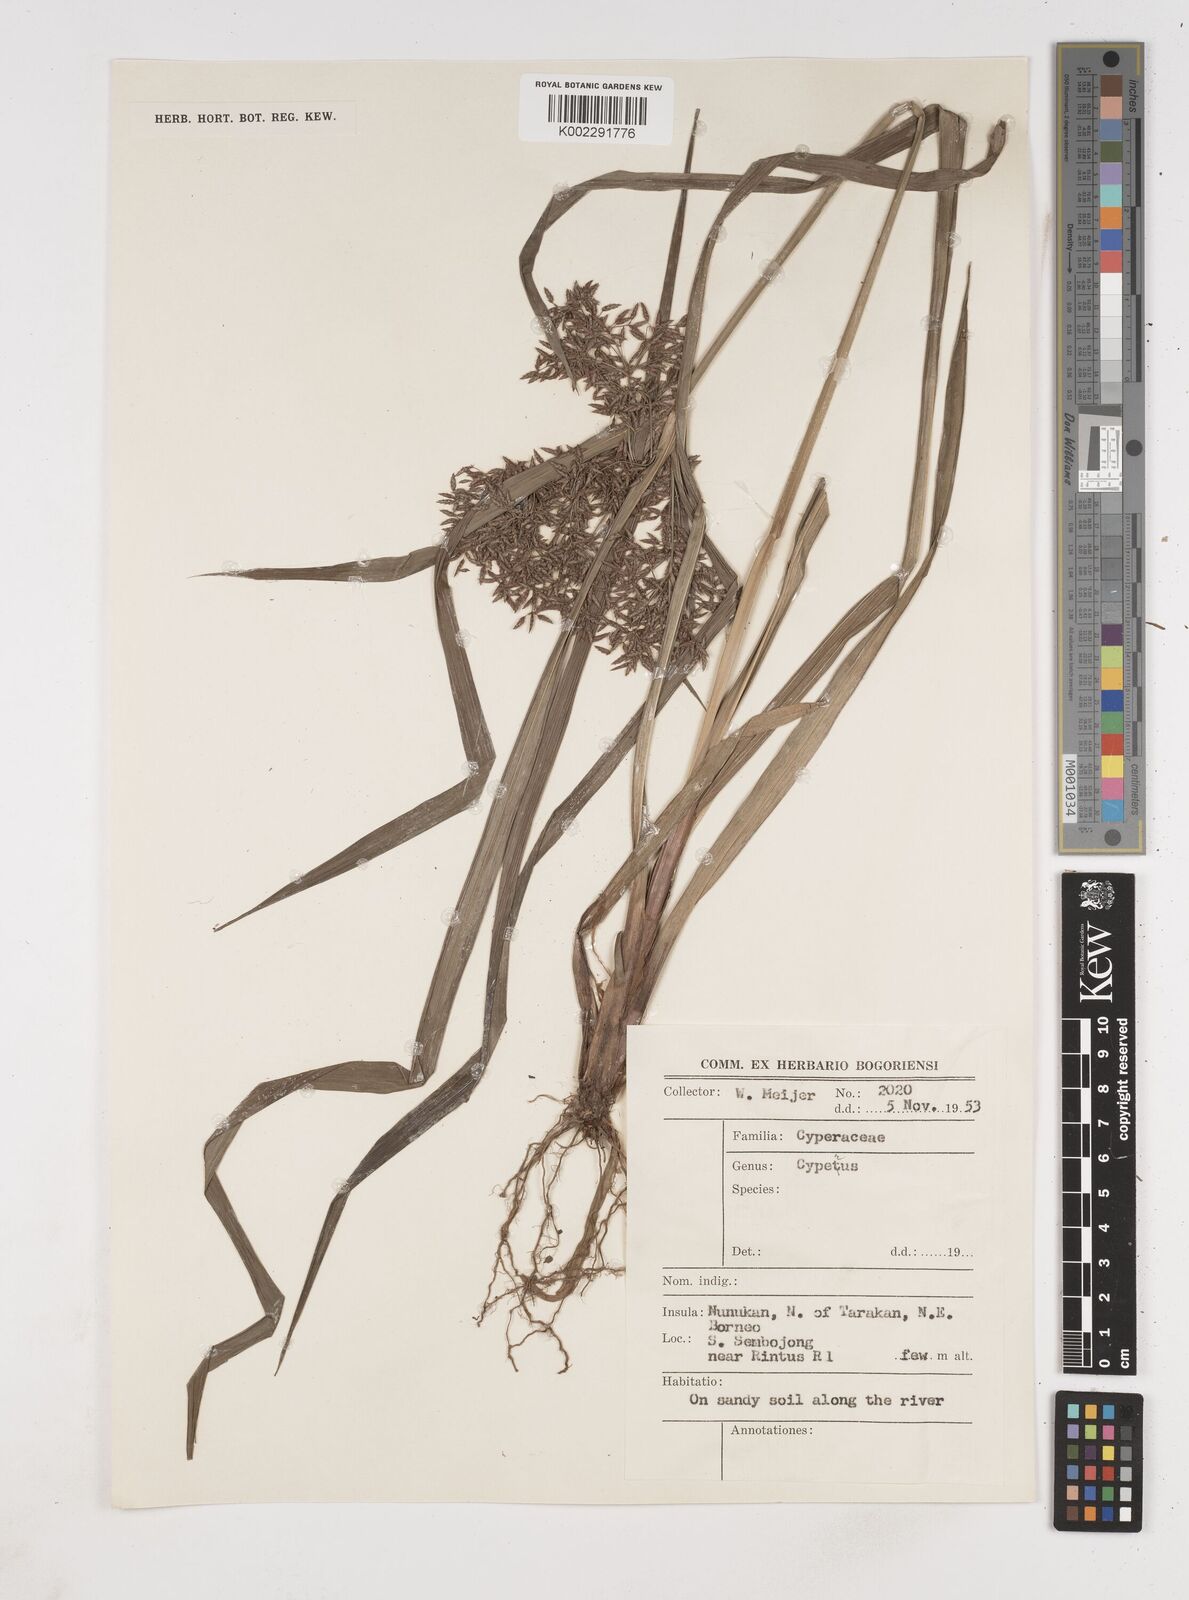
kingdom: Plantae
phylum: Tracheophyta
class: Liliopsida
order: Poales
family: Cyperaceae
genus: Cyperus
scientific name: Cyperus trialatus
